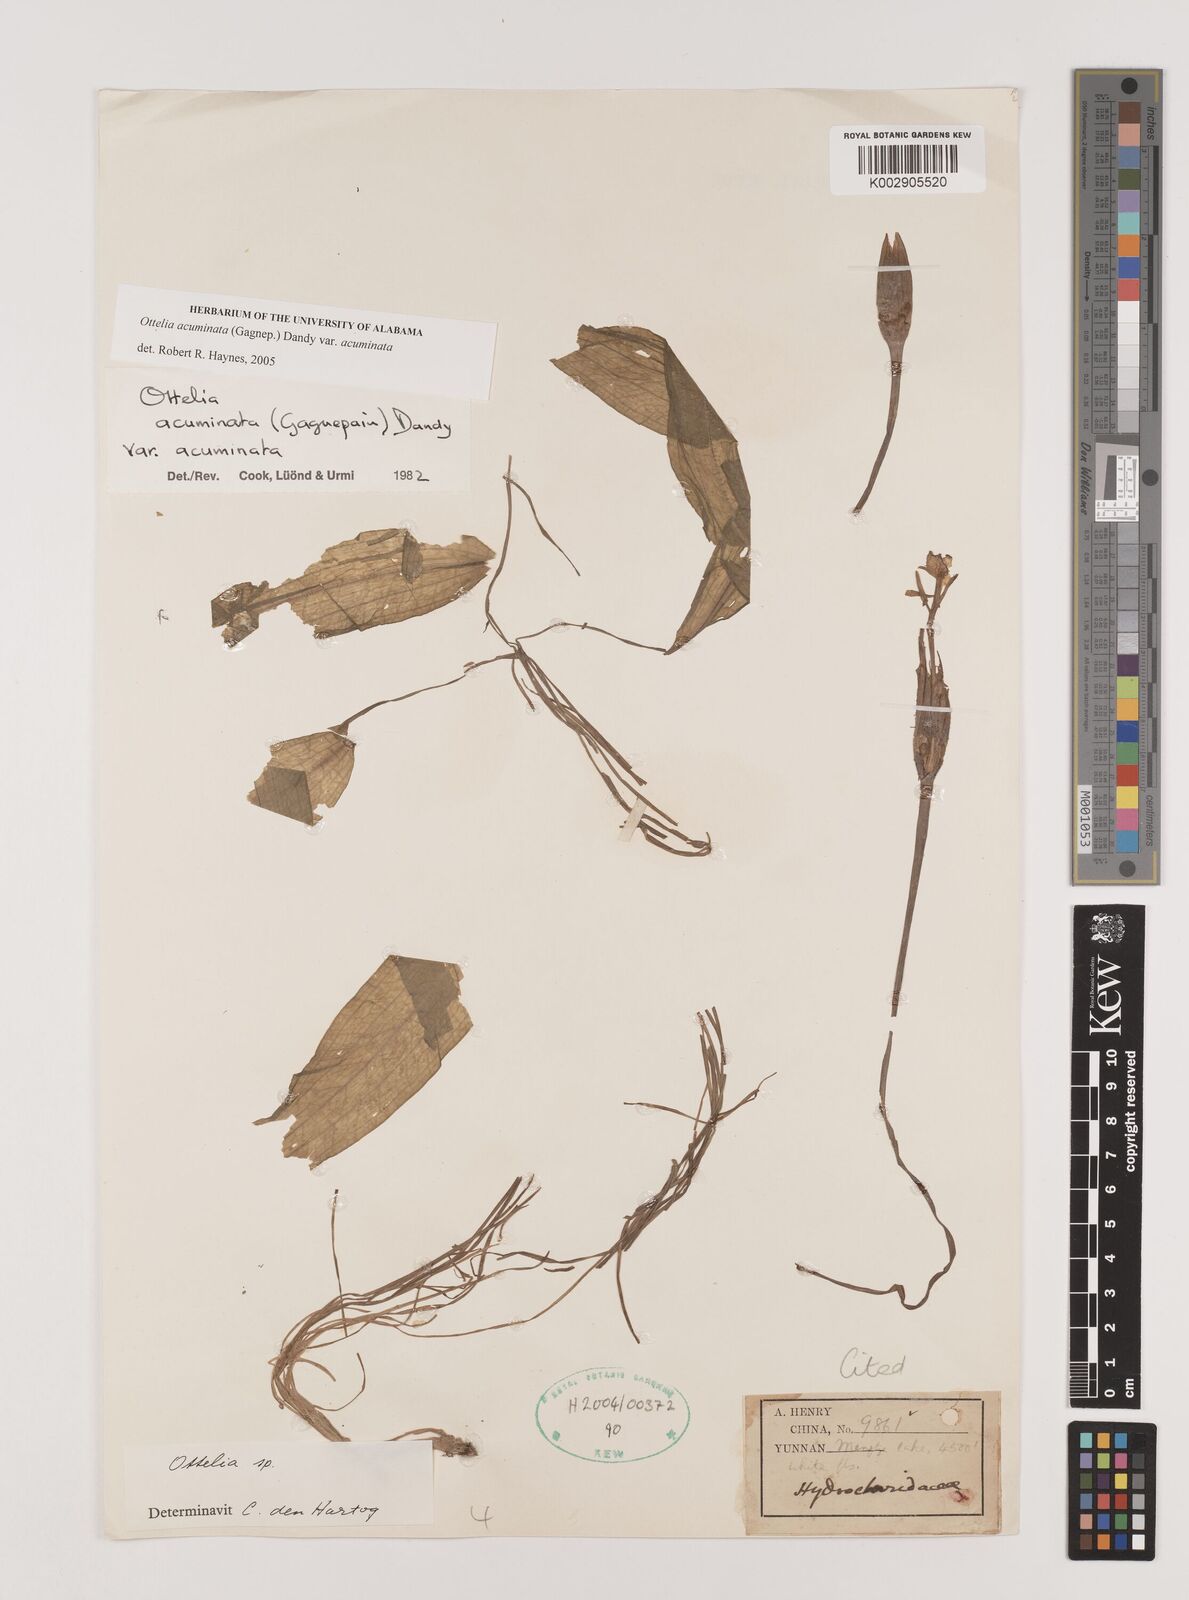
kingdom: Plantae
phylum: Tracheophyta
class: Liliopsida
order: Alismatales
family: Hydrocharitaceae
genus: Ottelia
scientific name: Ottelia acuminata
